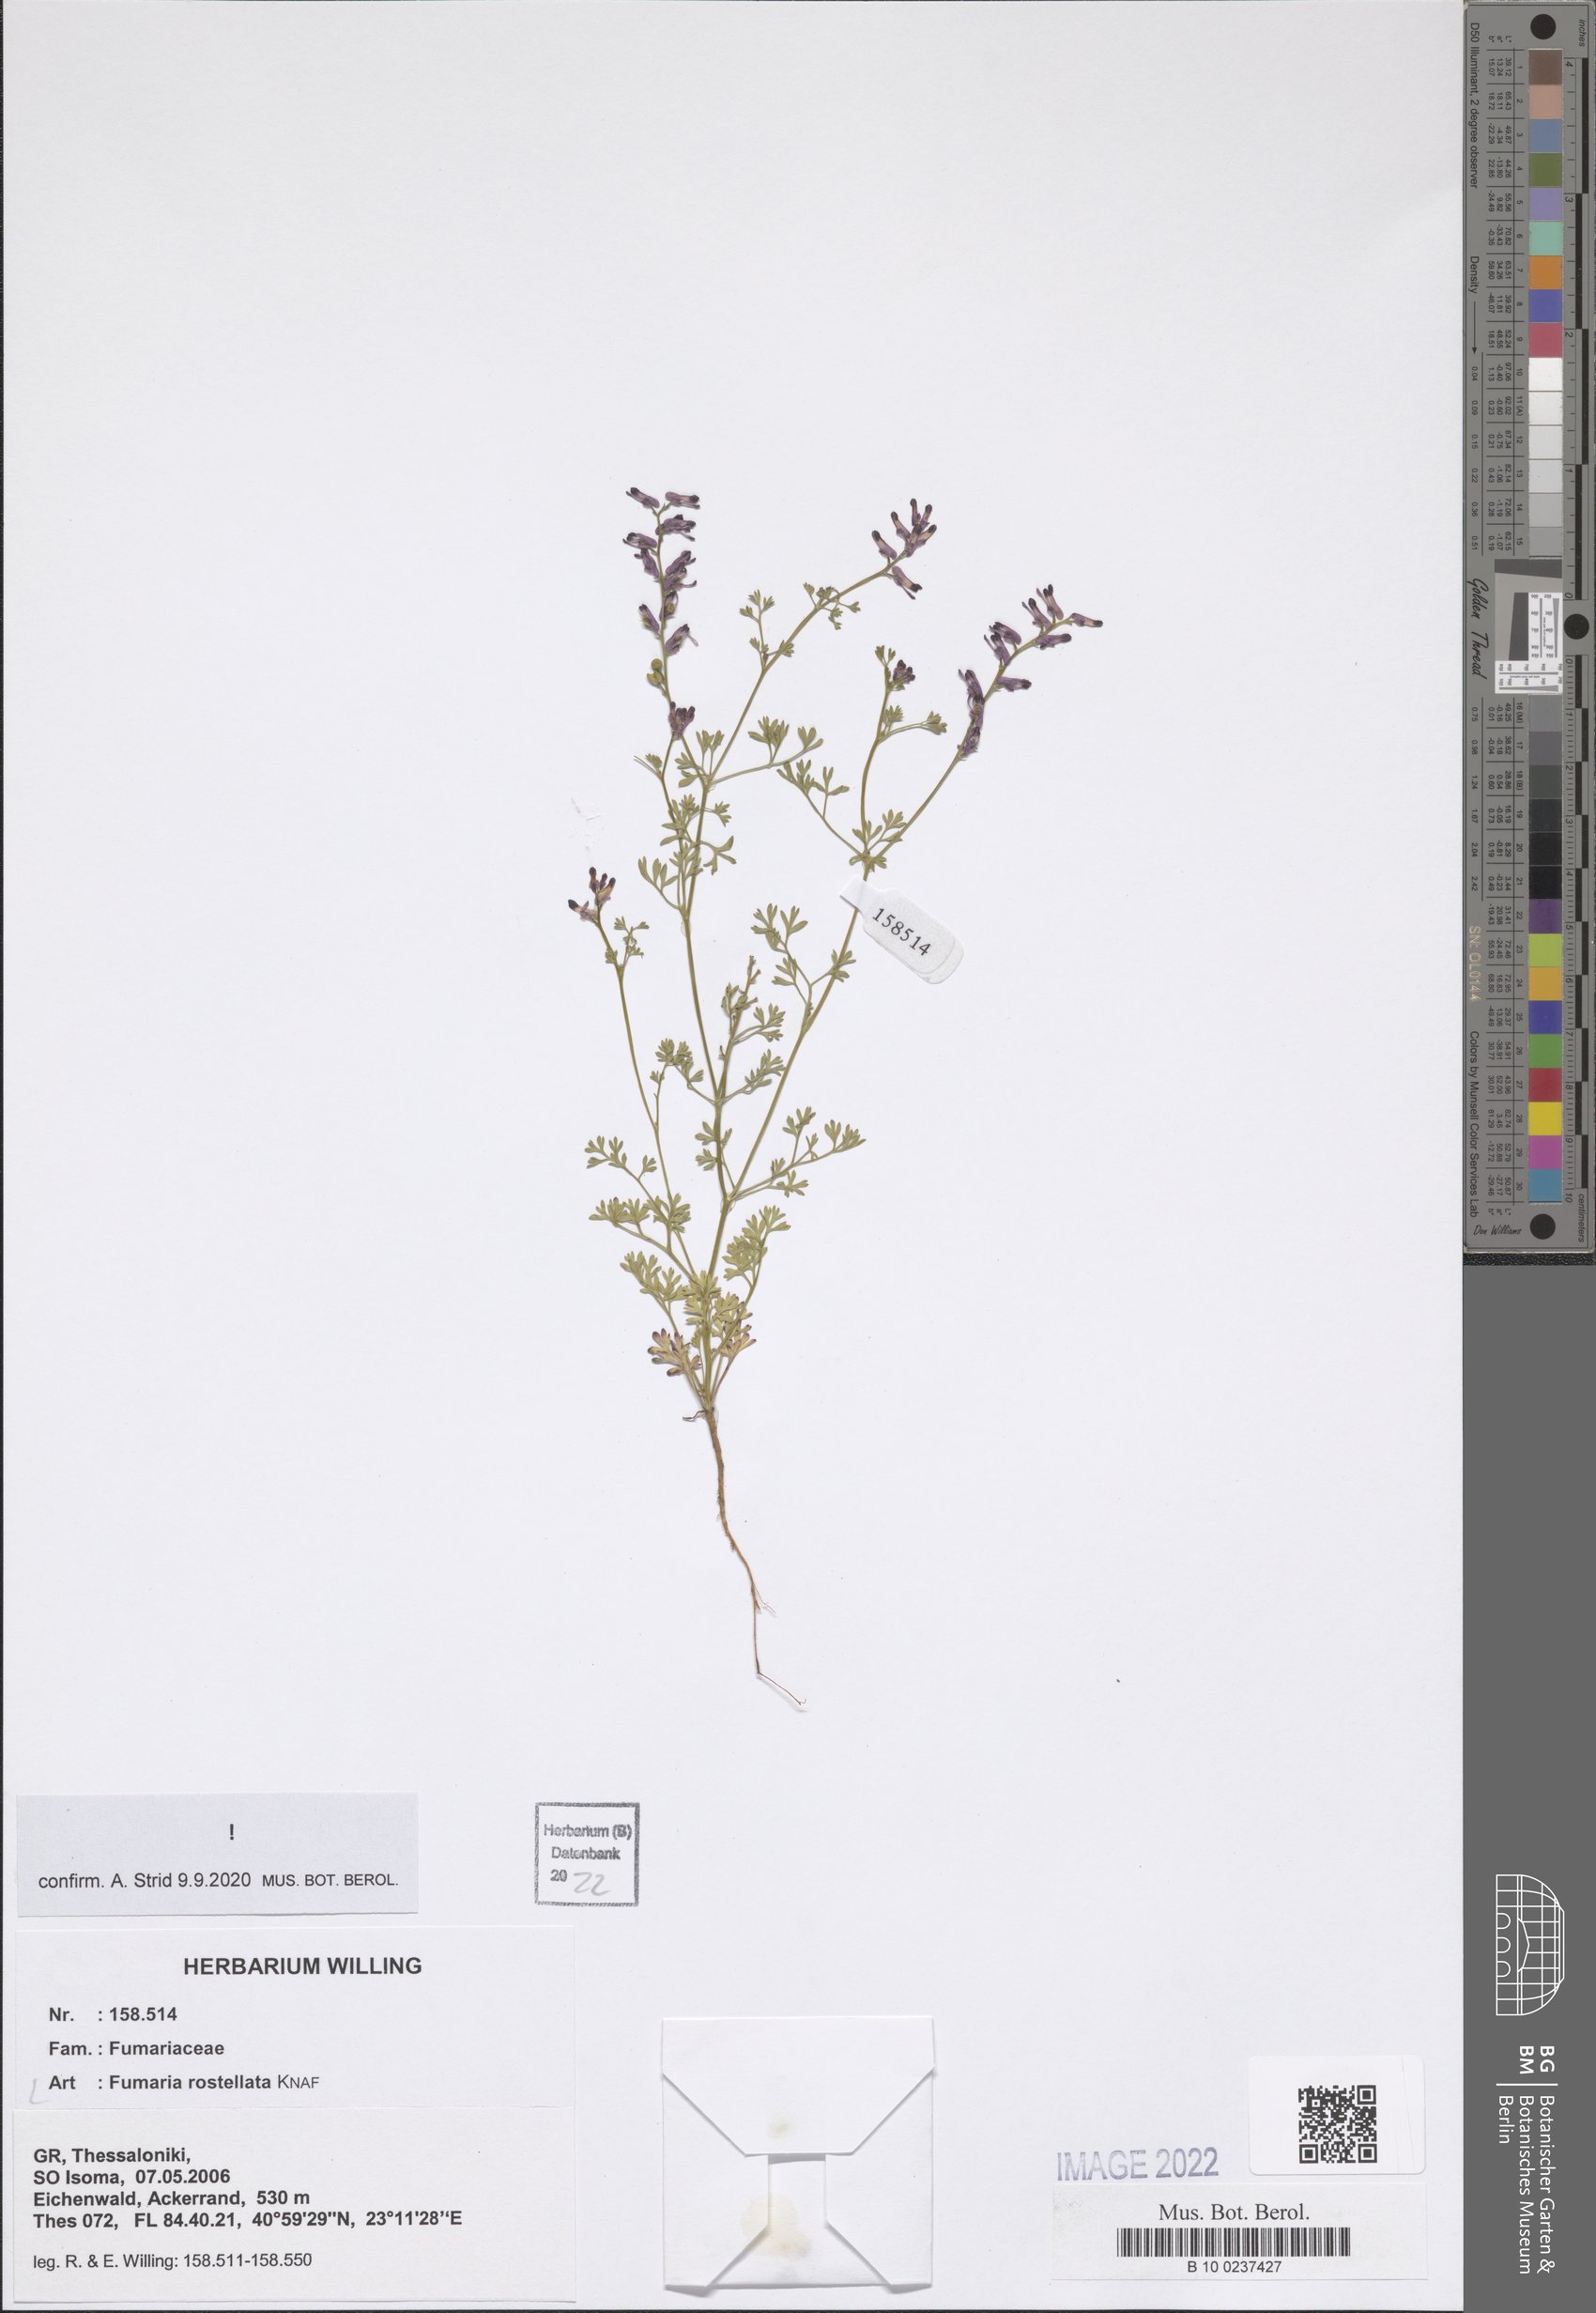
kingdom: Plantae
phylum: Tracheophyta
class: Magnoliopsida
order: Ranunculales
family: Papaveraceae
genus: Fumaria
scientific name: Fumaria rostellata
